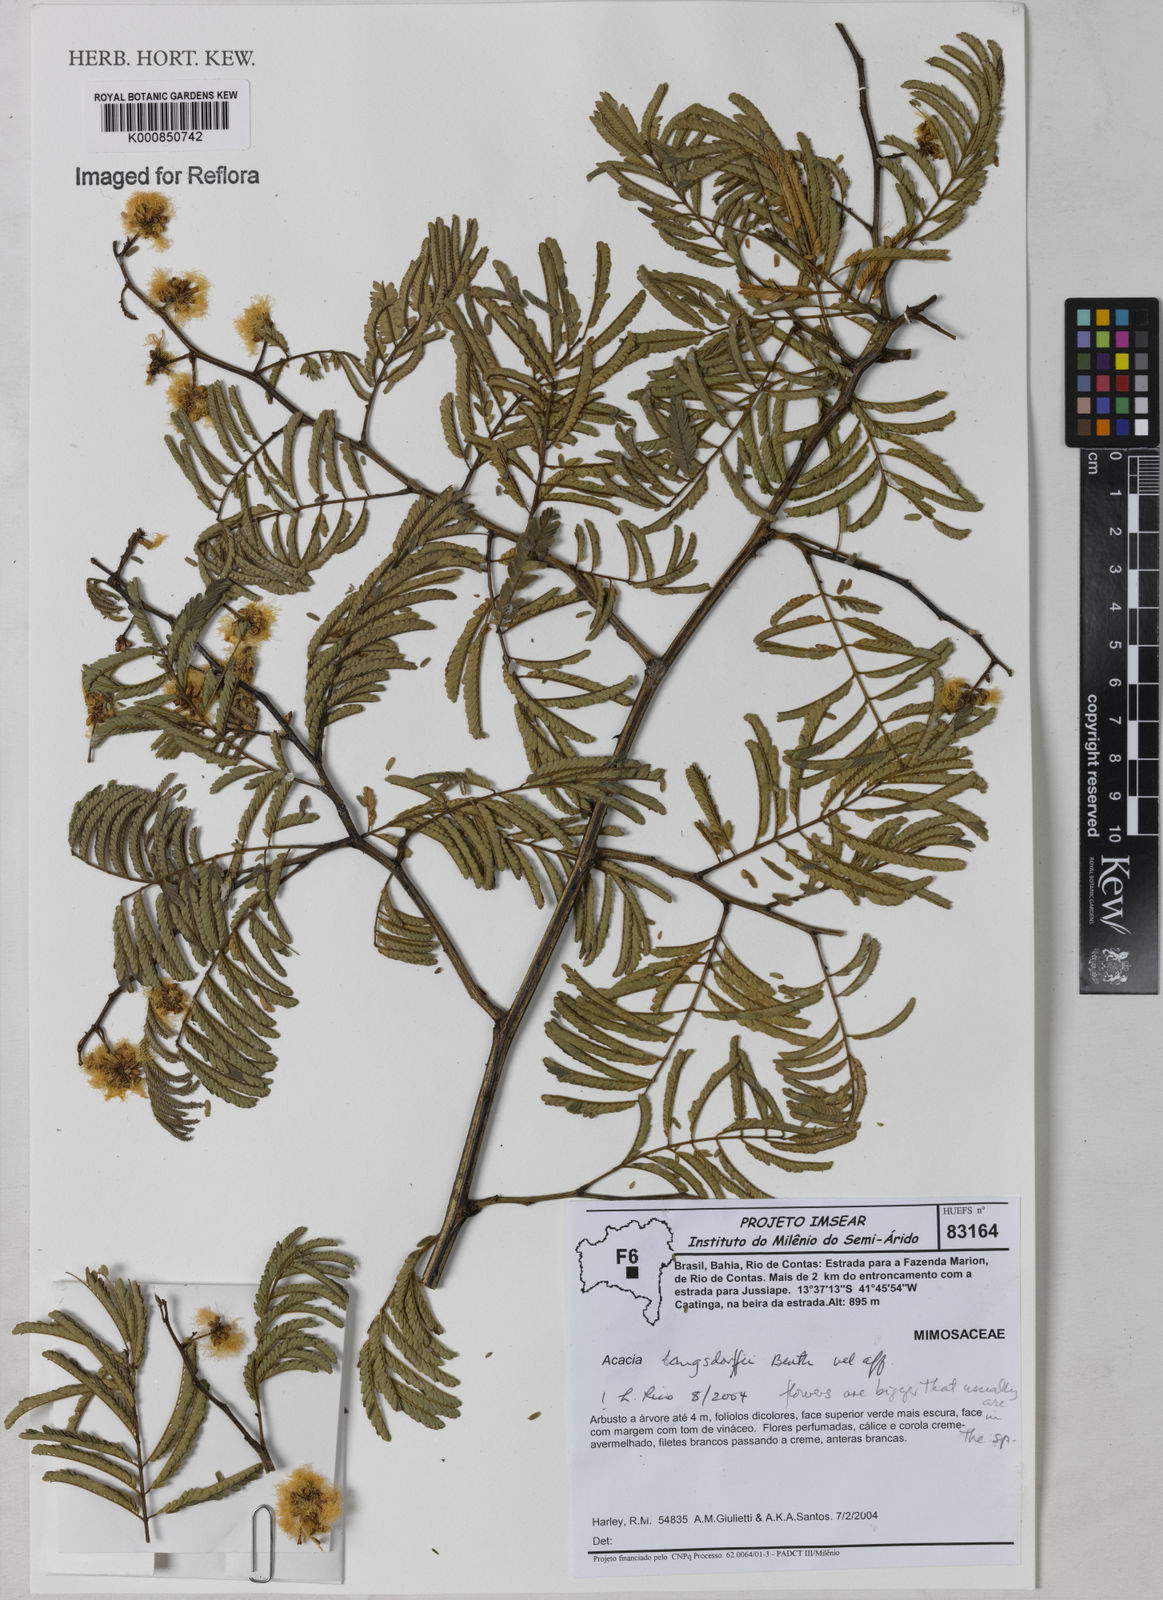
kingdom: Plantae
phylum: Tracheophyta
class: Magnoliopsida
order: Fabales
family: Fabaceae
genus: Senegalia
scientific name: Senegalia langsdorffii
